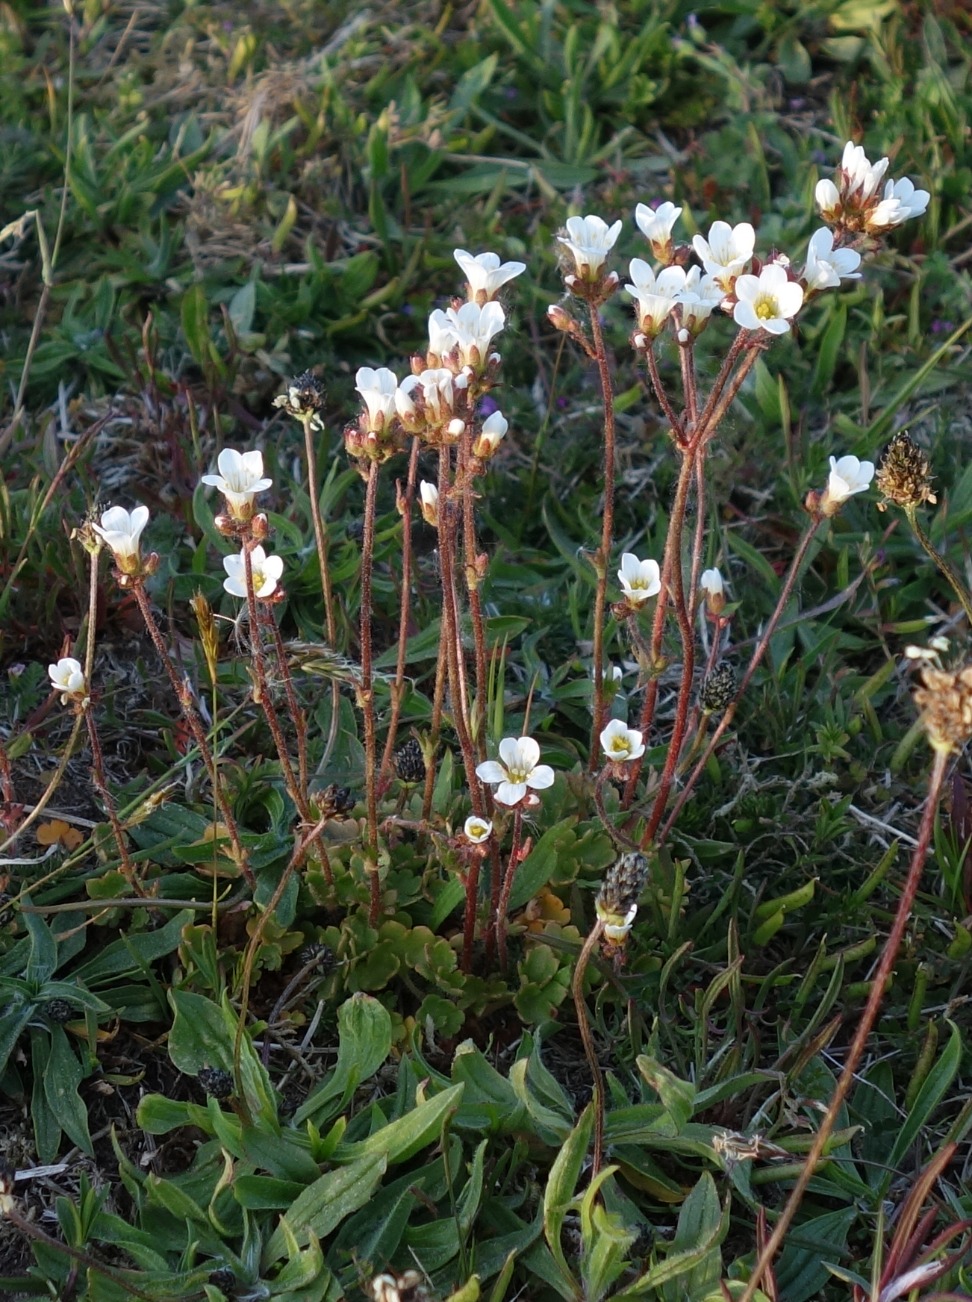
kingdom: Plantae
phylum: Tracheophyta
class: Magnoliopsida
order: Saxifragales
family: Saxifragaceae
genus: Saxifraga
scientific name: Saxifraga granulata
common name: Kornet stenbræk
